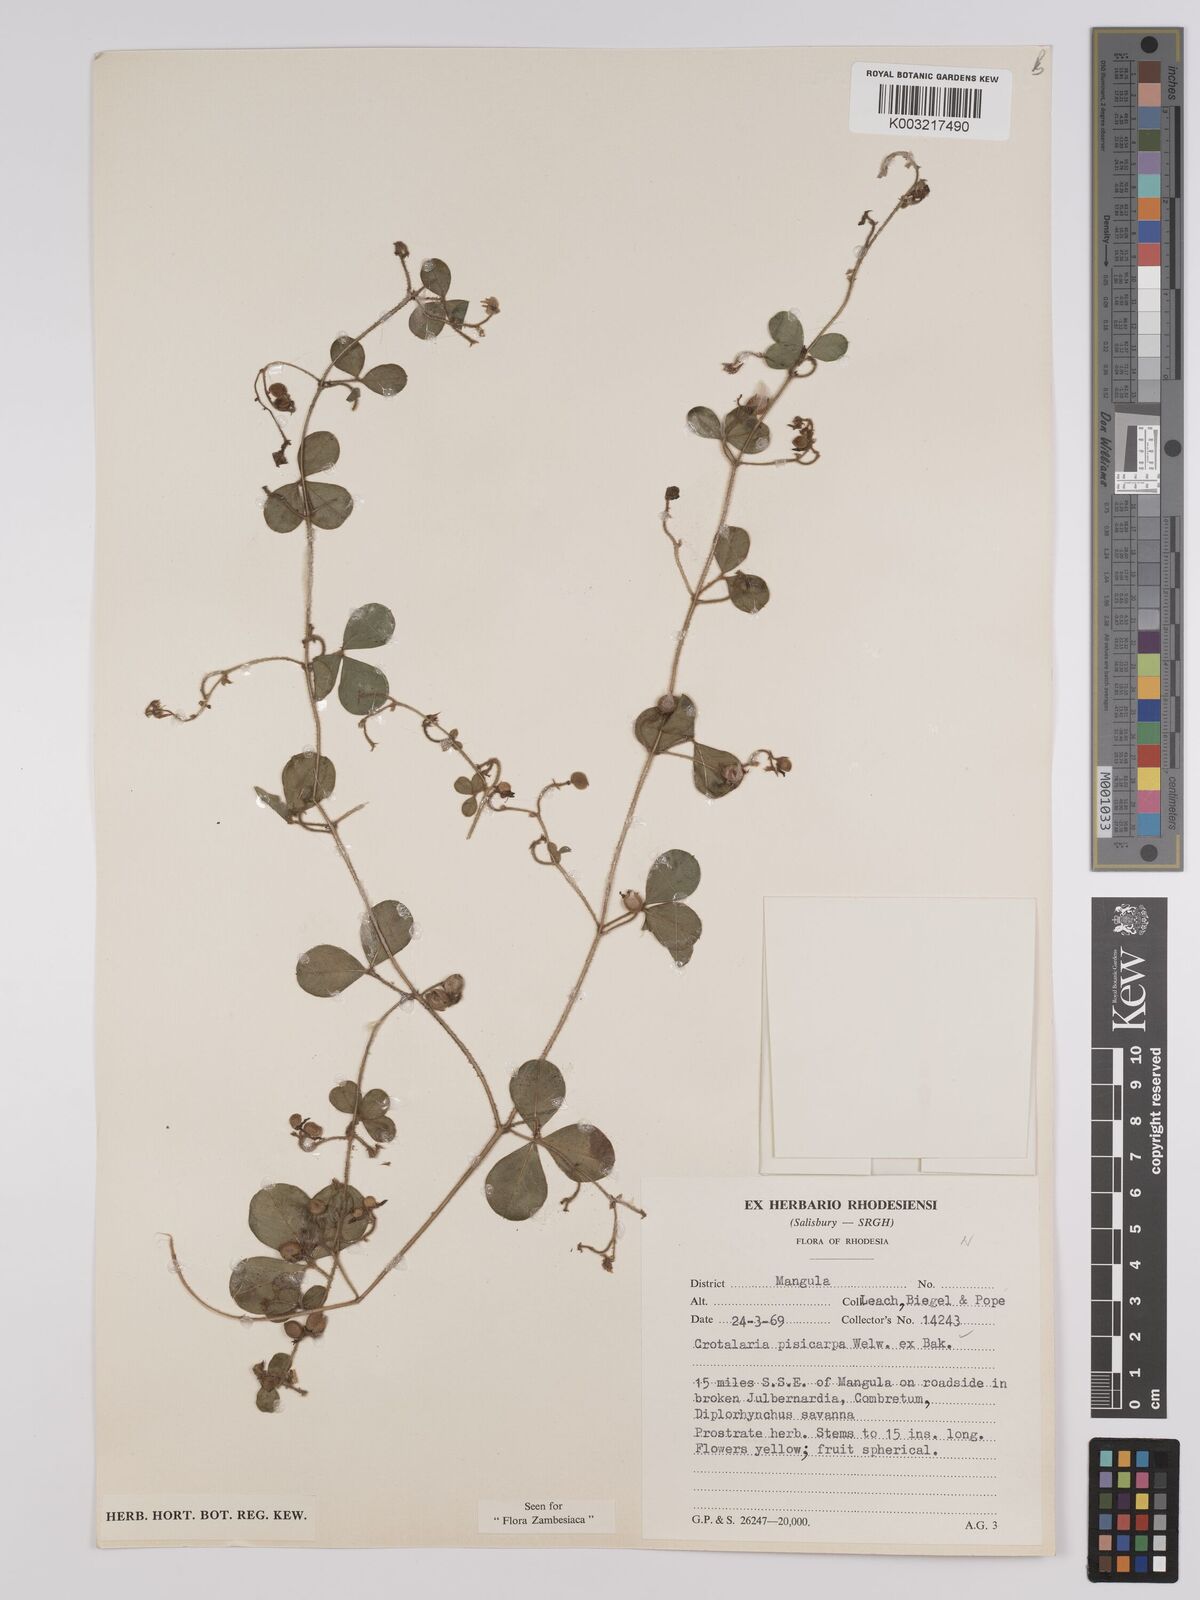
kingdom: Plantae
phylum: Tracheophyta
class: Magnoliopsida
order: Fabales
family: Fabaceae
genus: Crotalaria
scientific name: Crotalaria pisicarpa
